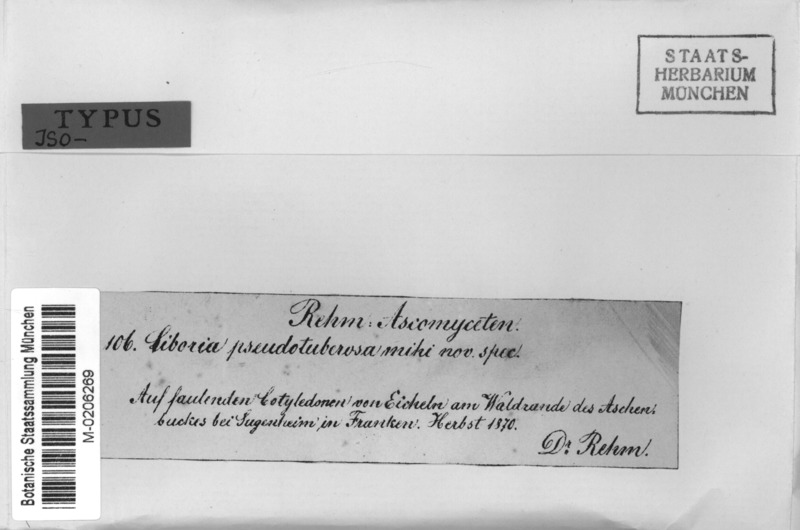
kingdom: Fungi
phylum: Ascomycota
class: Leotiomycetes
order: Helotiales
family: Sclerotiniaceae
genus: Ciboria
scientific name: Ciboria batschiana
